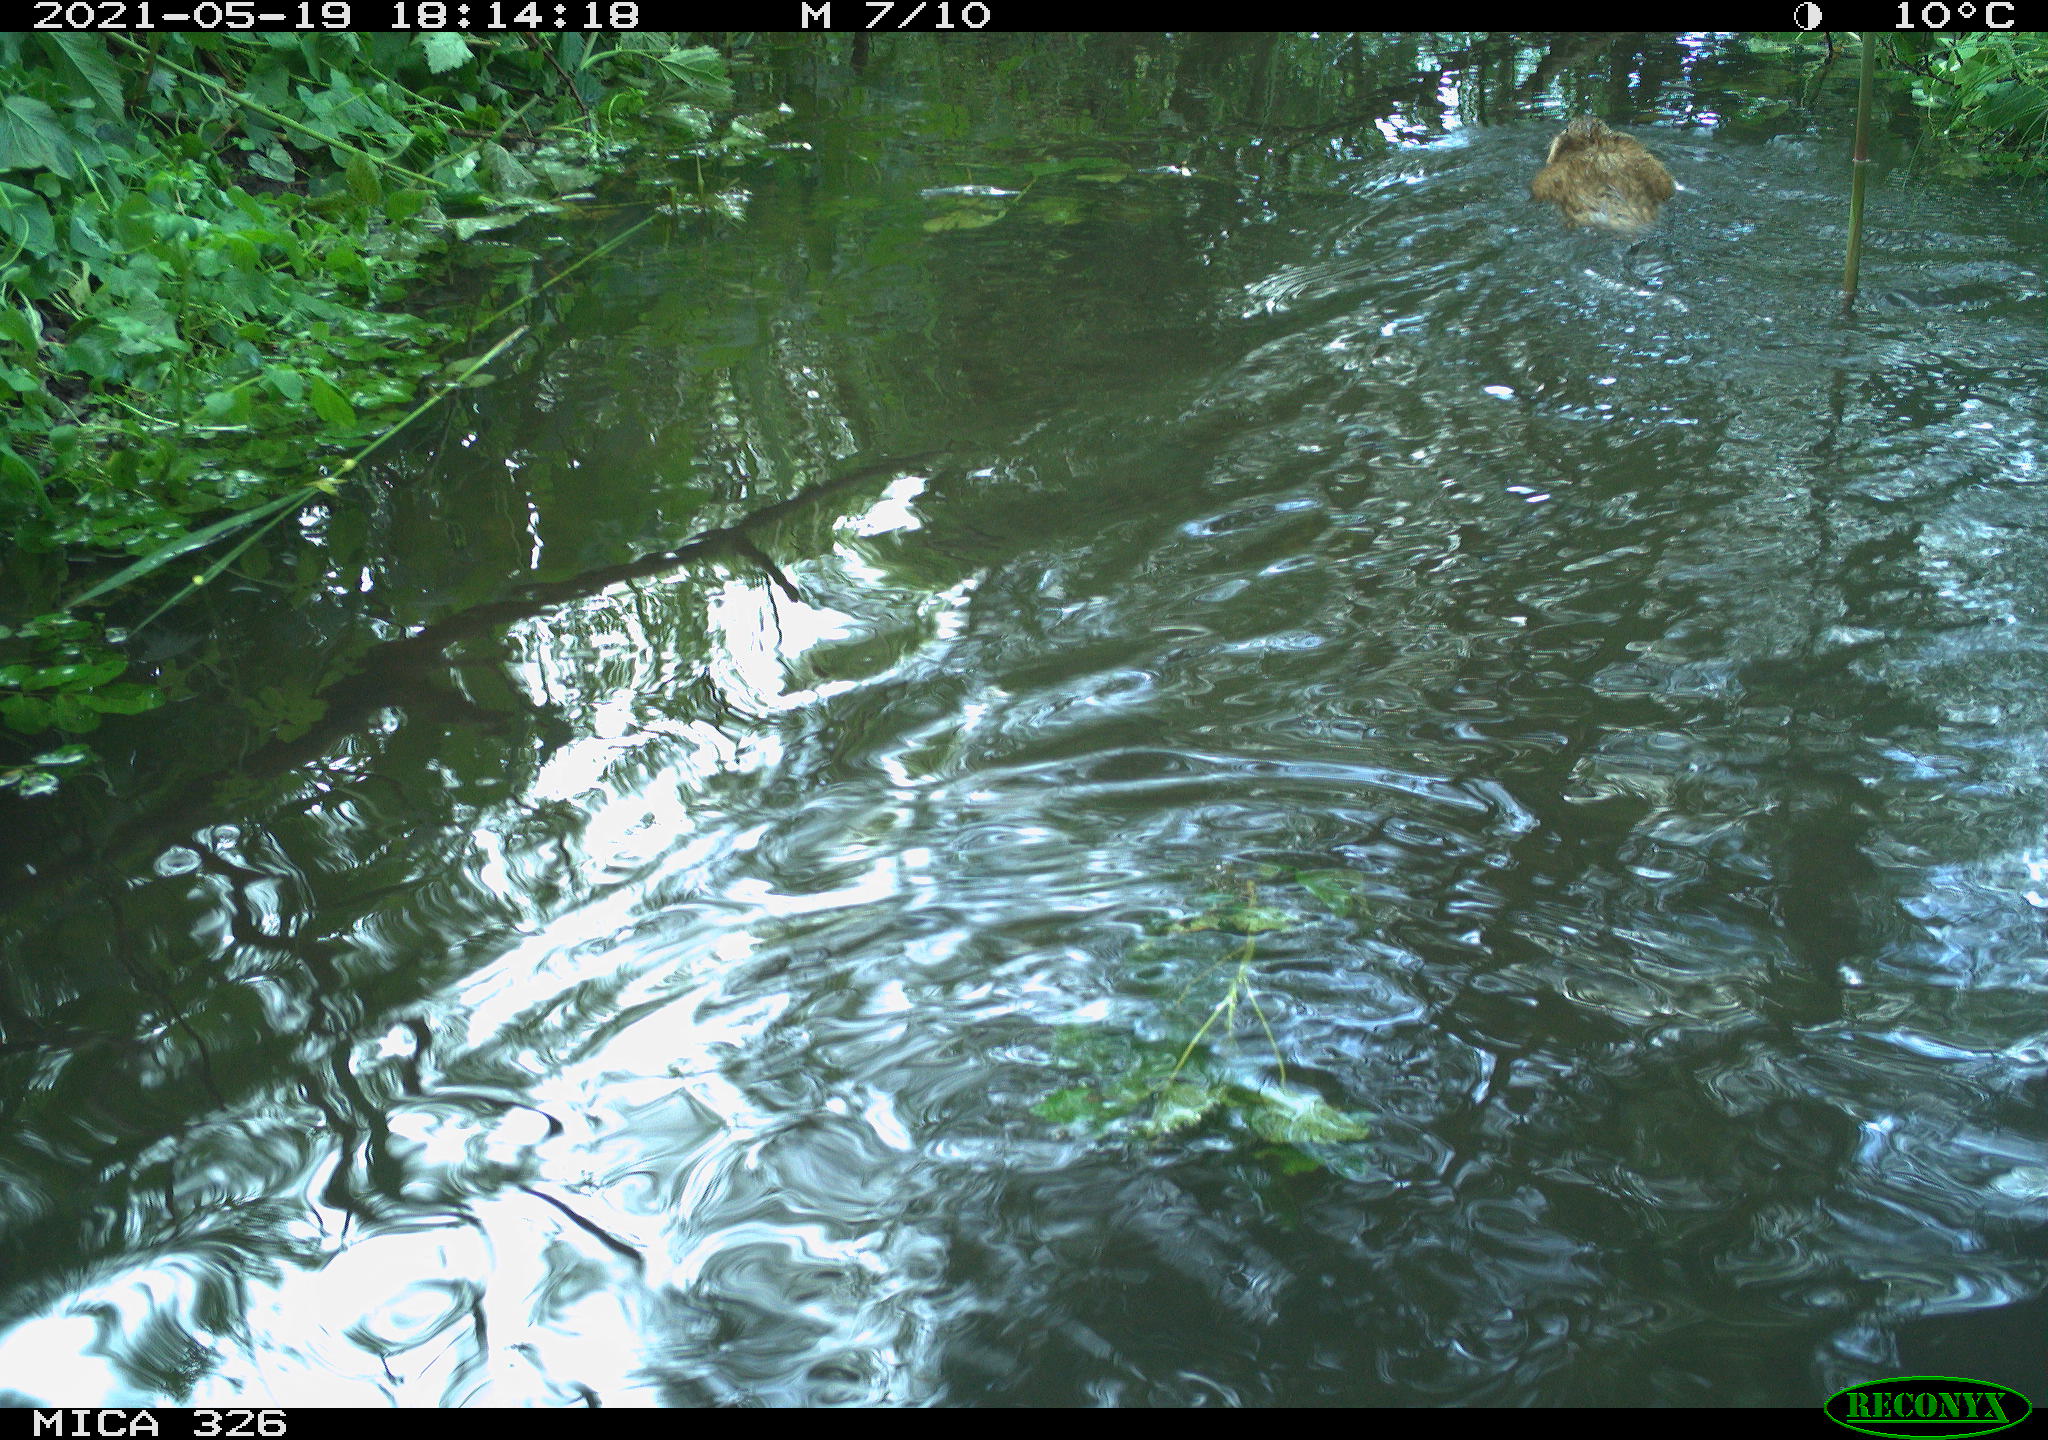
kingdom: Animalia
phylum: Chordata
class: Mammalia
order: Rodentia
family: Cricetidae
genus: Ondatra
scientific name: Ondatra zibethicus
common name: Muskrat
